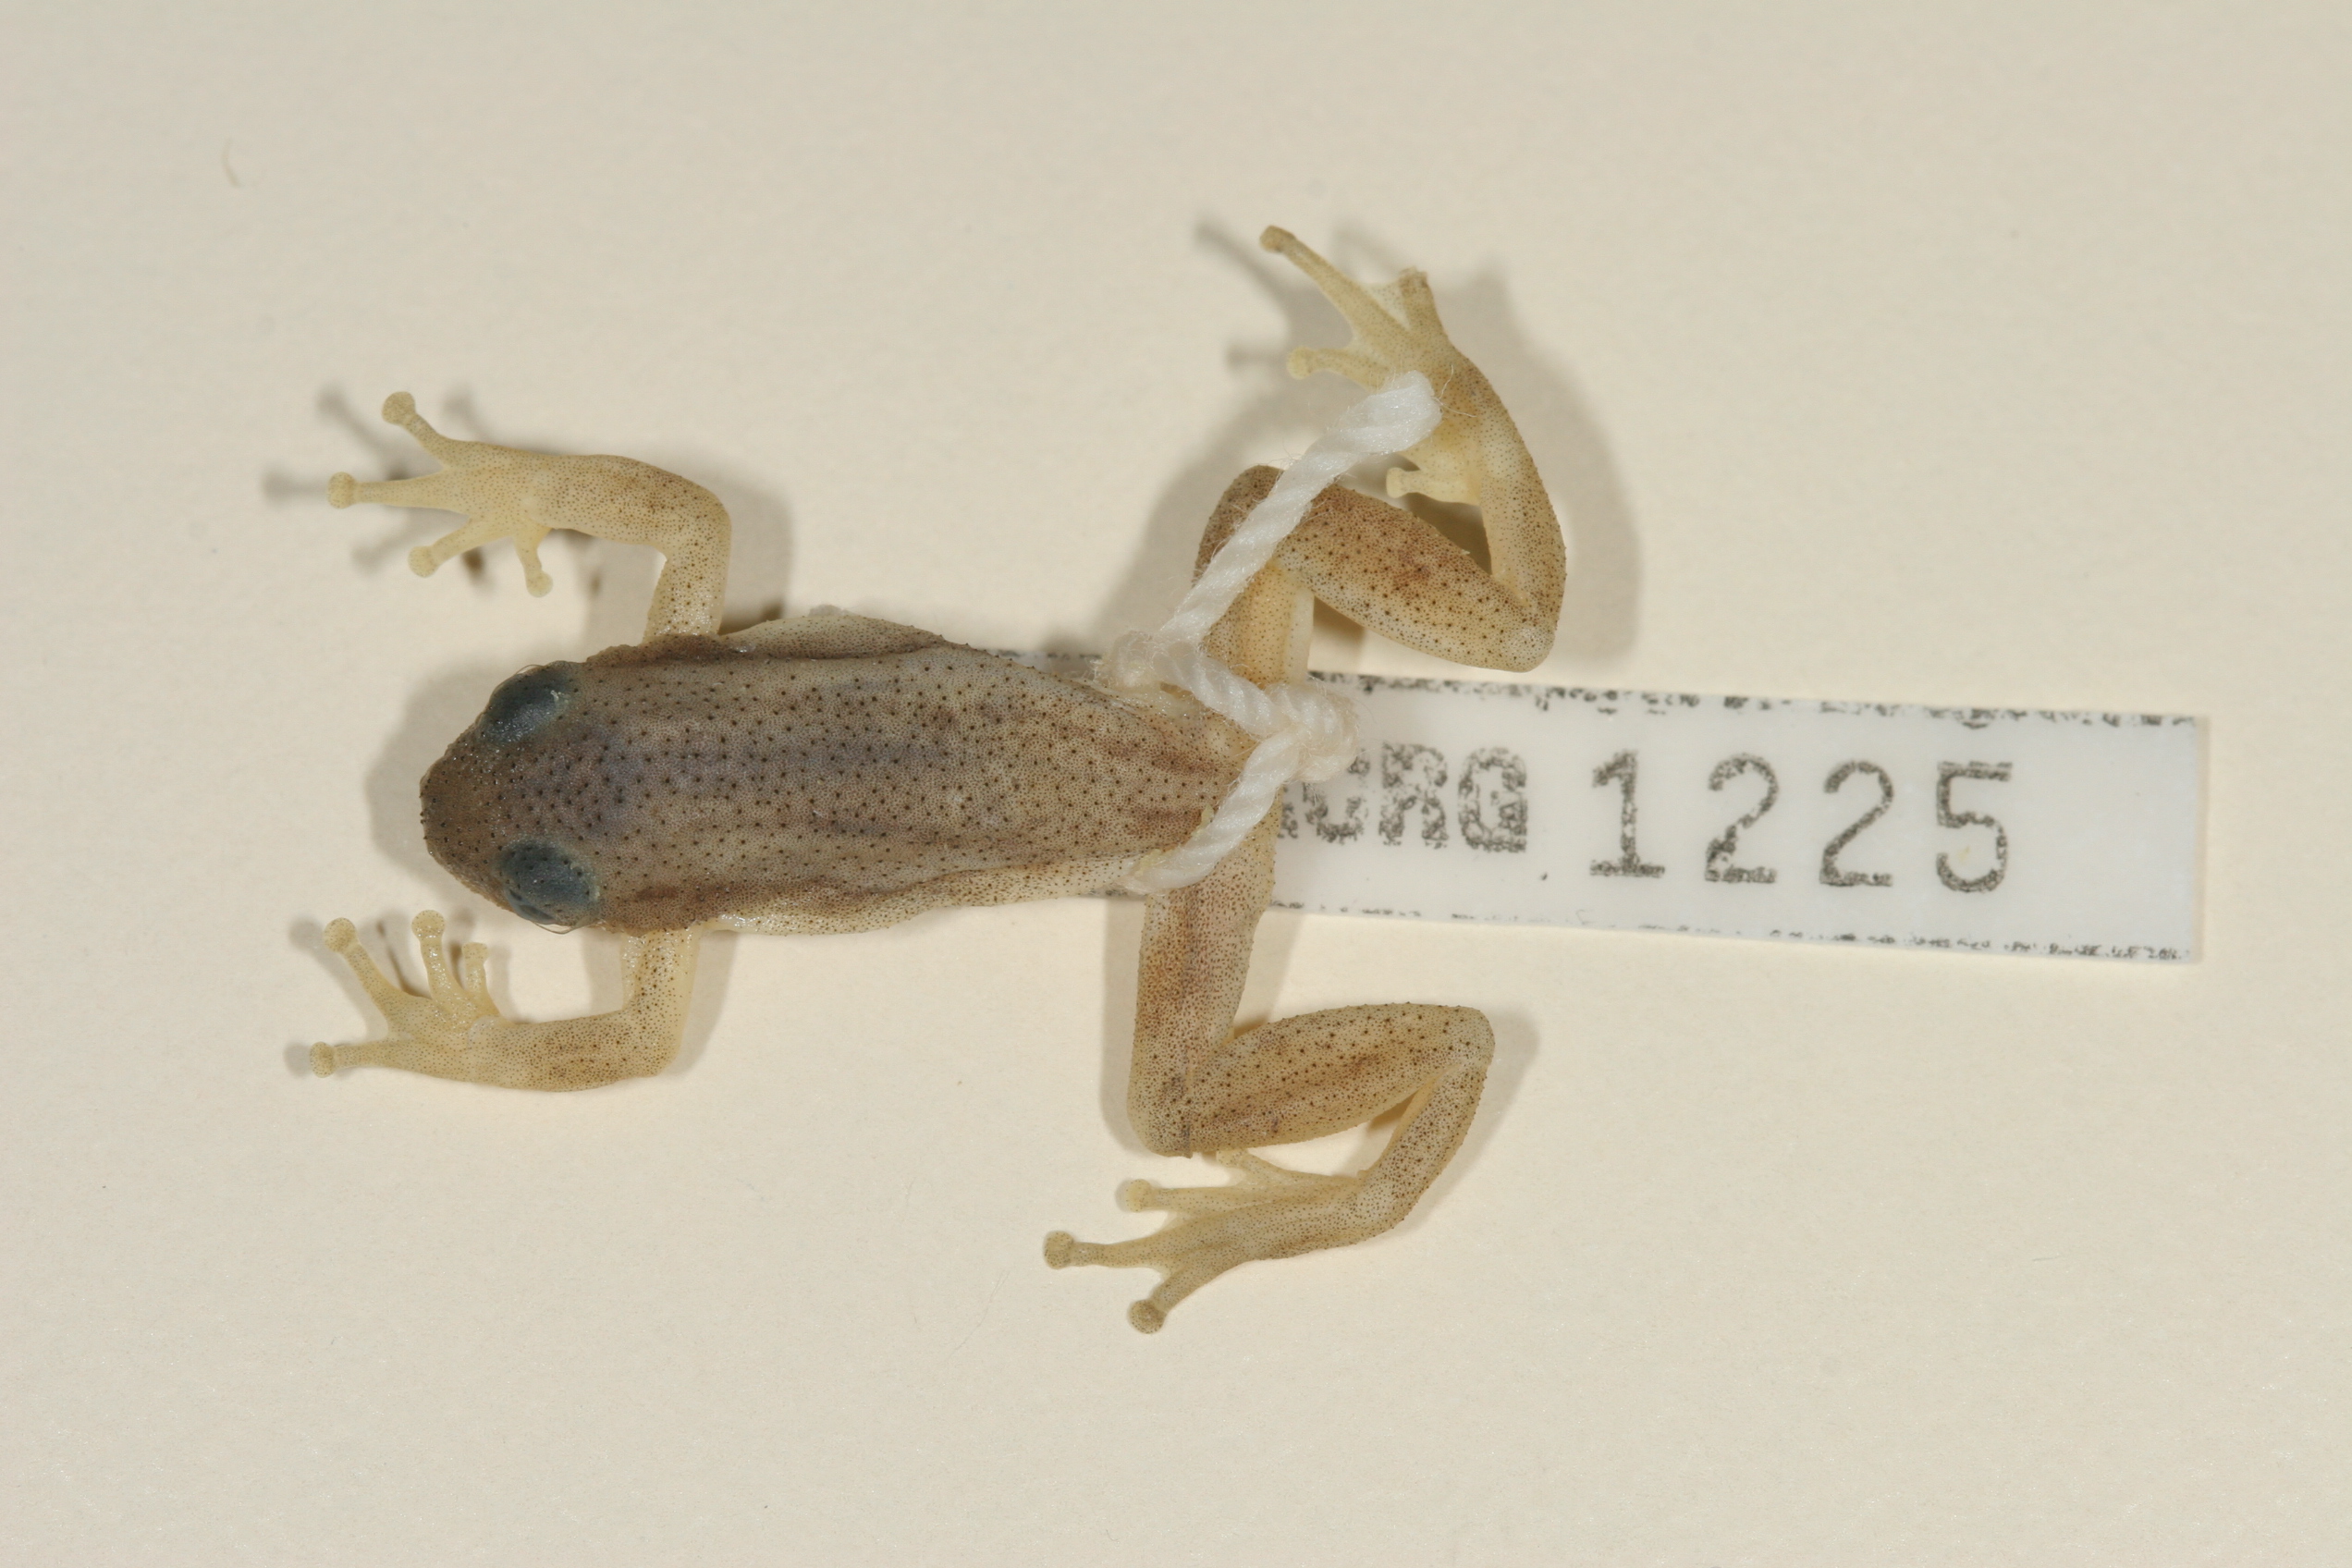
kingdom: Animalia
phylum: Chordata
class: Amphibia
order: Anura
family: Hyperoliidae
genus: Afrixalus
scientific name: Afrixalus spinifrons
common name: Natal spiny reed frog
